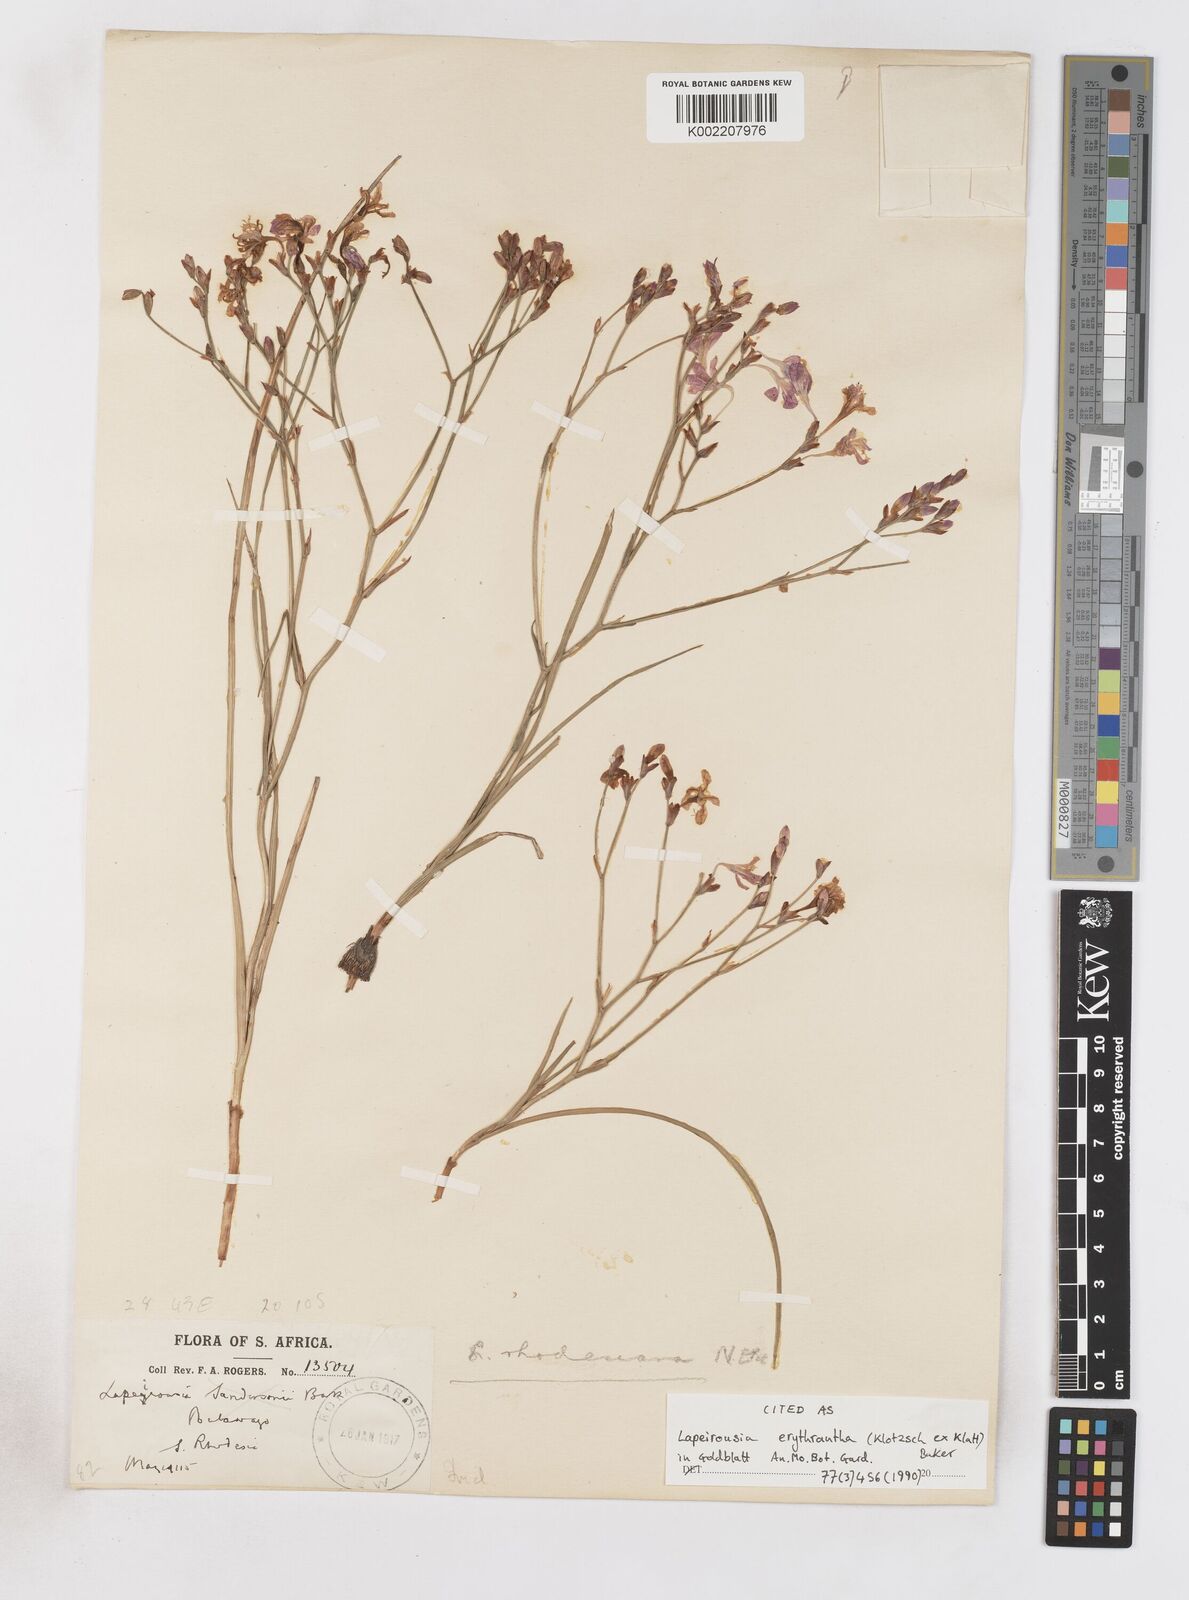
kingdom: Plantae
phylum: Tracheophyta
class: Liliopsida
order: Asparagales
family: Iridaceae
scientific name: Iridaceae
